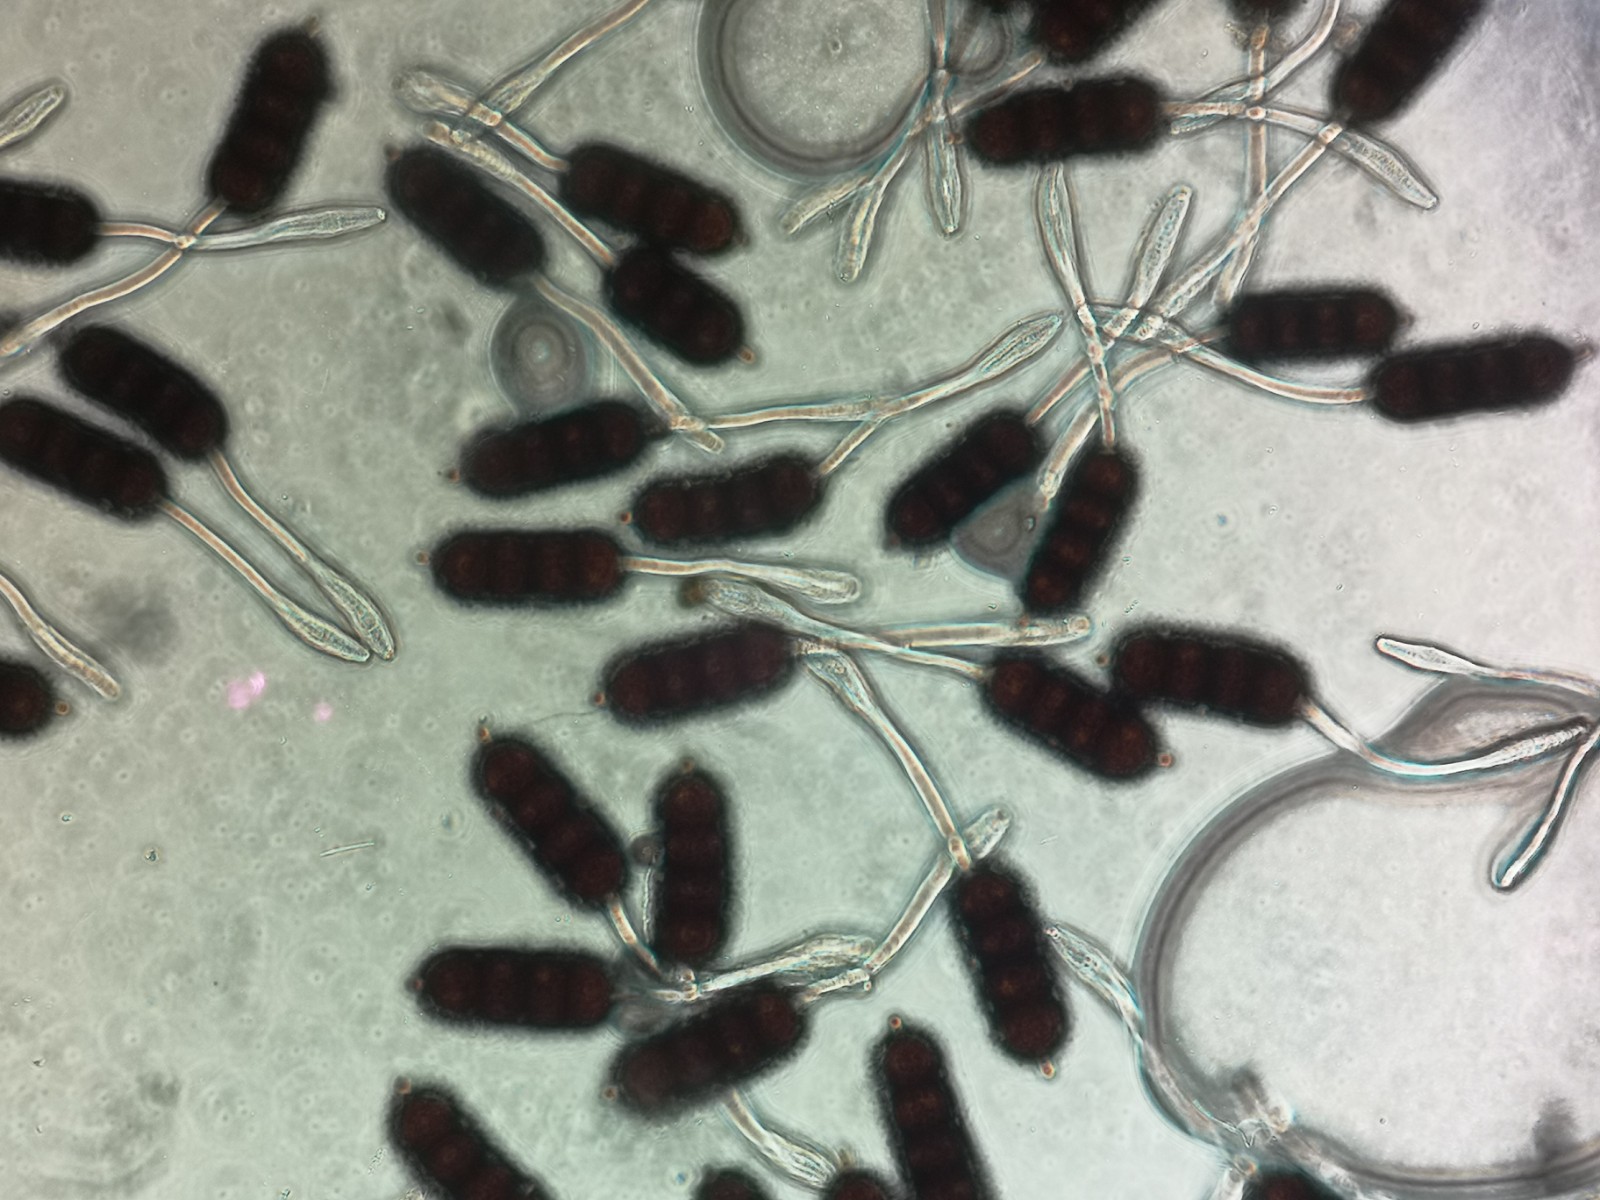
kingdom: Fungi
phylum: Basidiomycota
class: Pucciniomycetes
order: Pucciniales
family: Phragmidiaceae
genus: Phragmidium
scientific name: Phragmidium violaceum
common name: violet flercellerust
